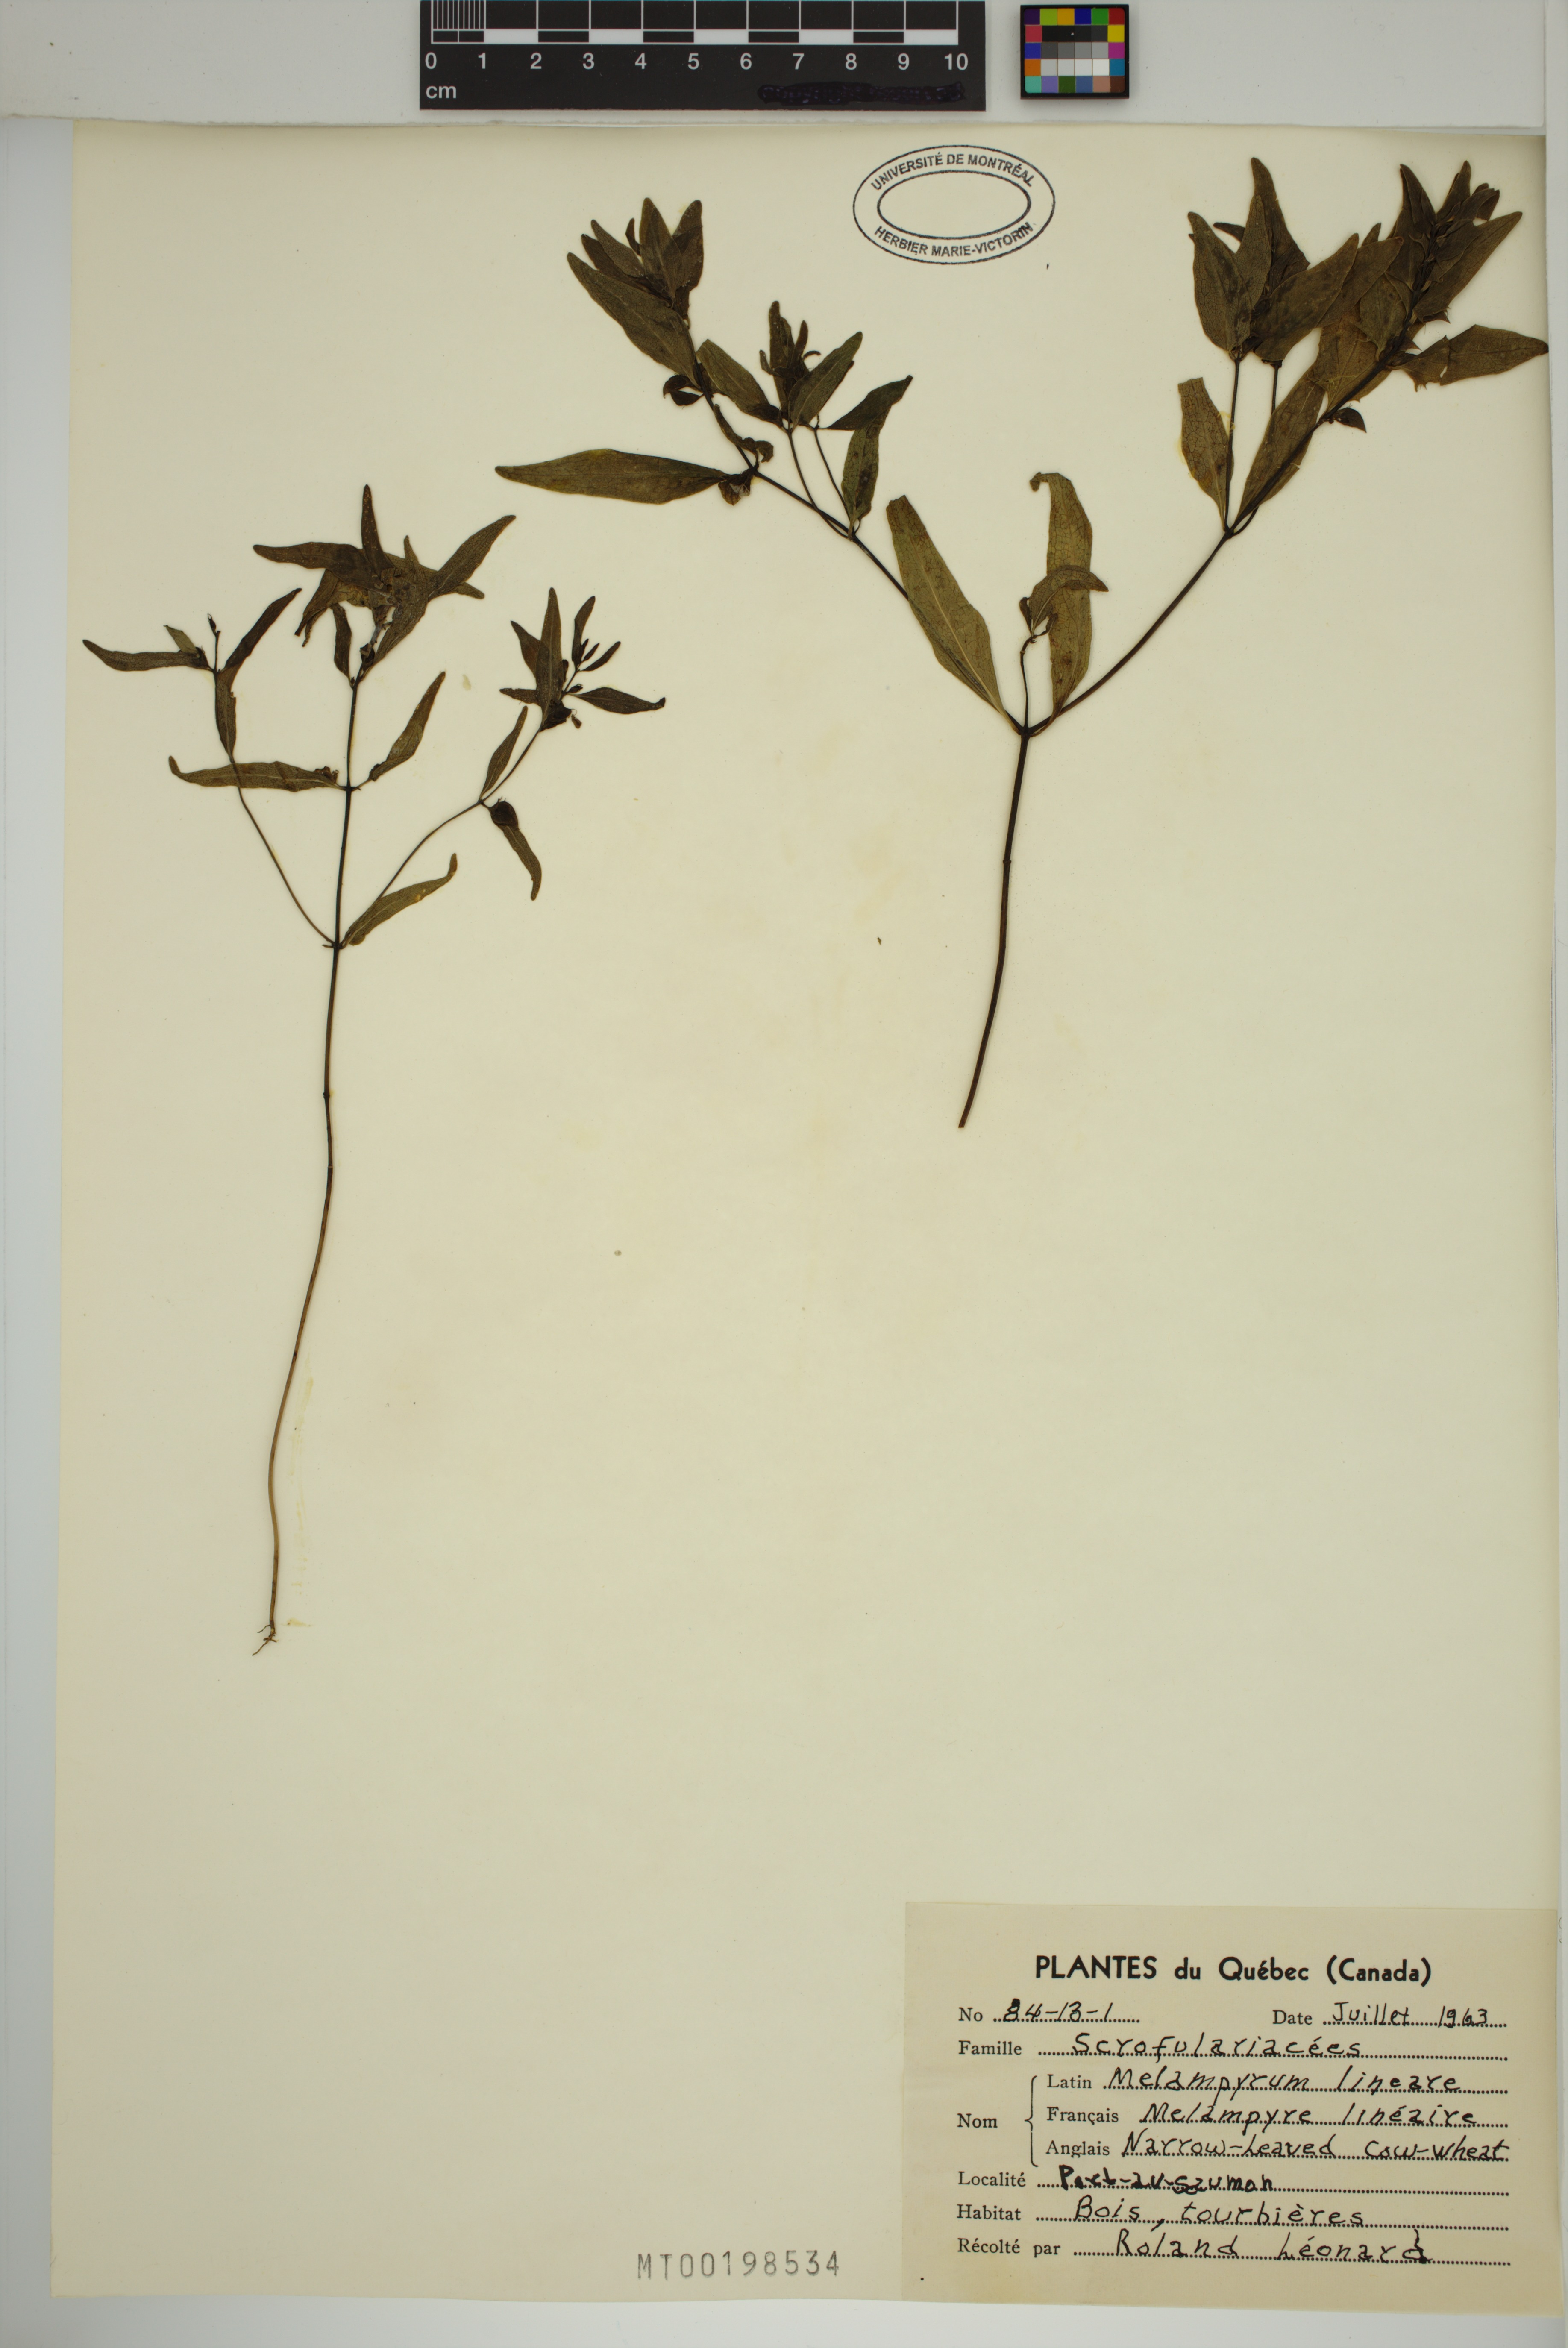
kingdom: Plantae
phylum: Tracheophyta
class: Magnoliopsida
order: Lamiales
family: Orobanchaceae
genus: Melampyrum
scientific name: Melampyrum lineare
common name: American cow-wheat
